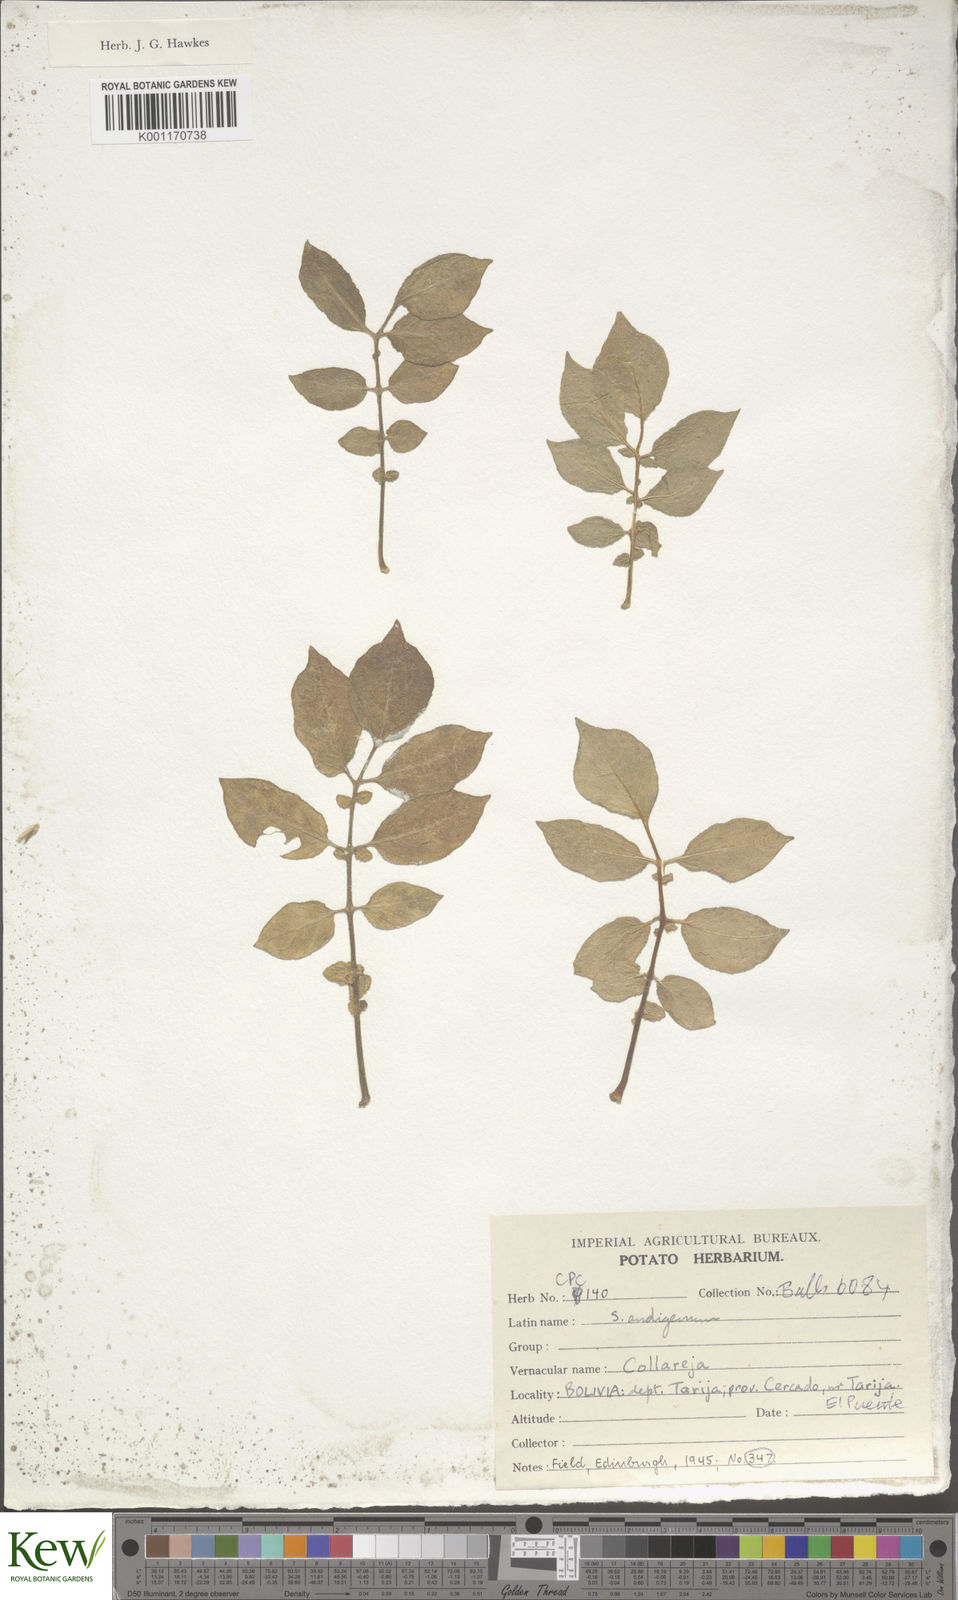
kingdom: Plantae
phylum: Tracheophyta
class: Magnoliopsida
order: Solanales
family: Solanaceae
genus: Solanum
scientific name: Solanum tuberosum
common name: Potato
